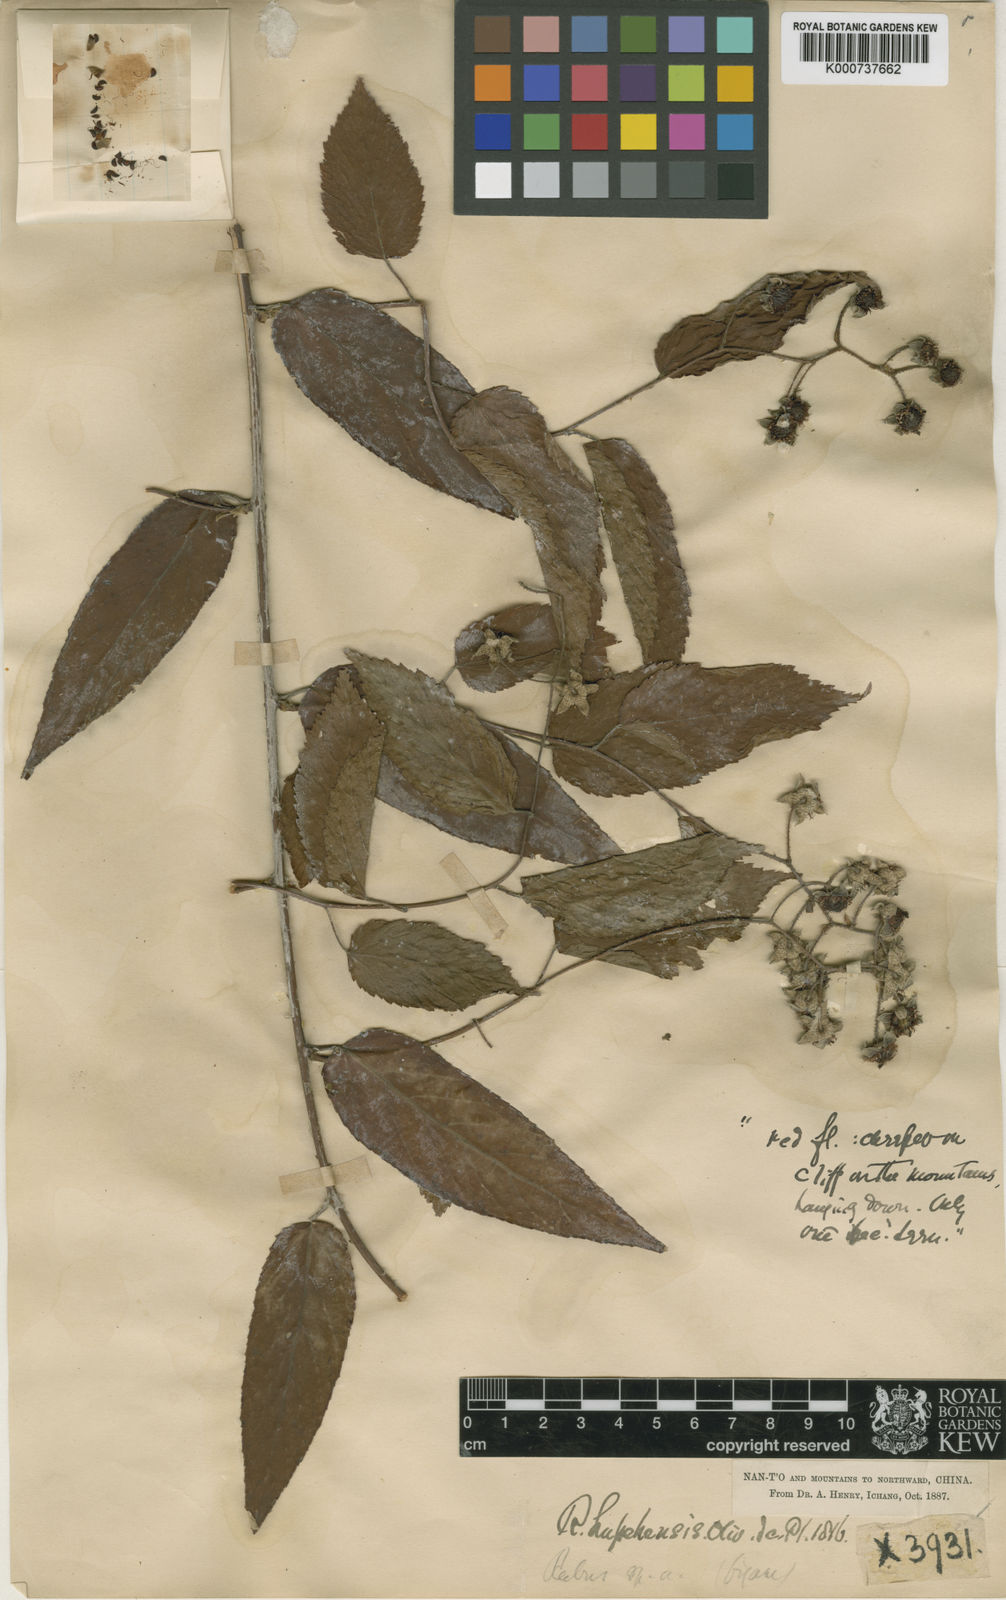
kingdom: Plantae
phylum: Tracheophyta
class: Magnoliopsida
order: Rosales
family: Rosaceae
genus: Rubus
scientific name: Rubus swinhoei
